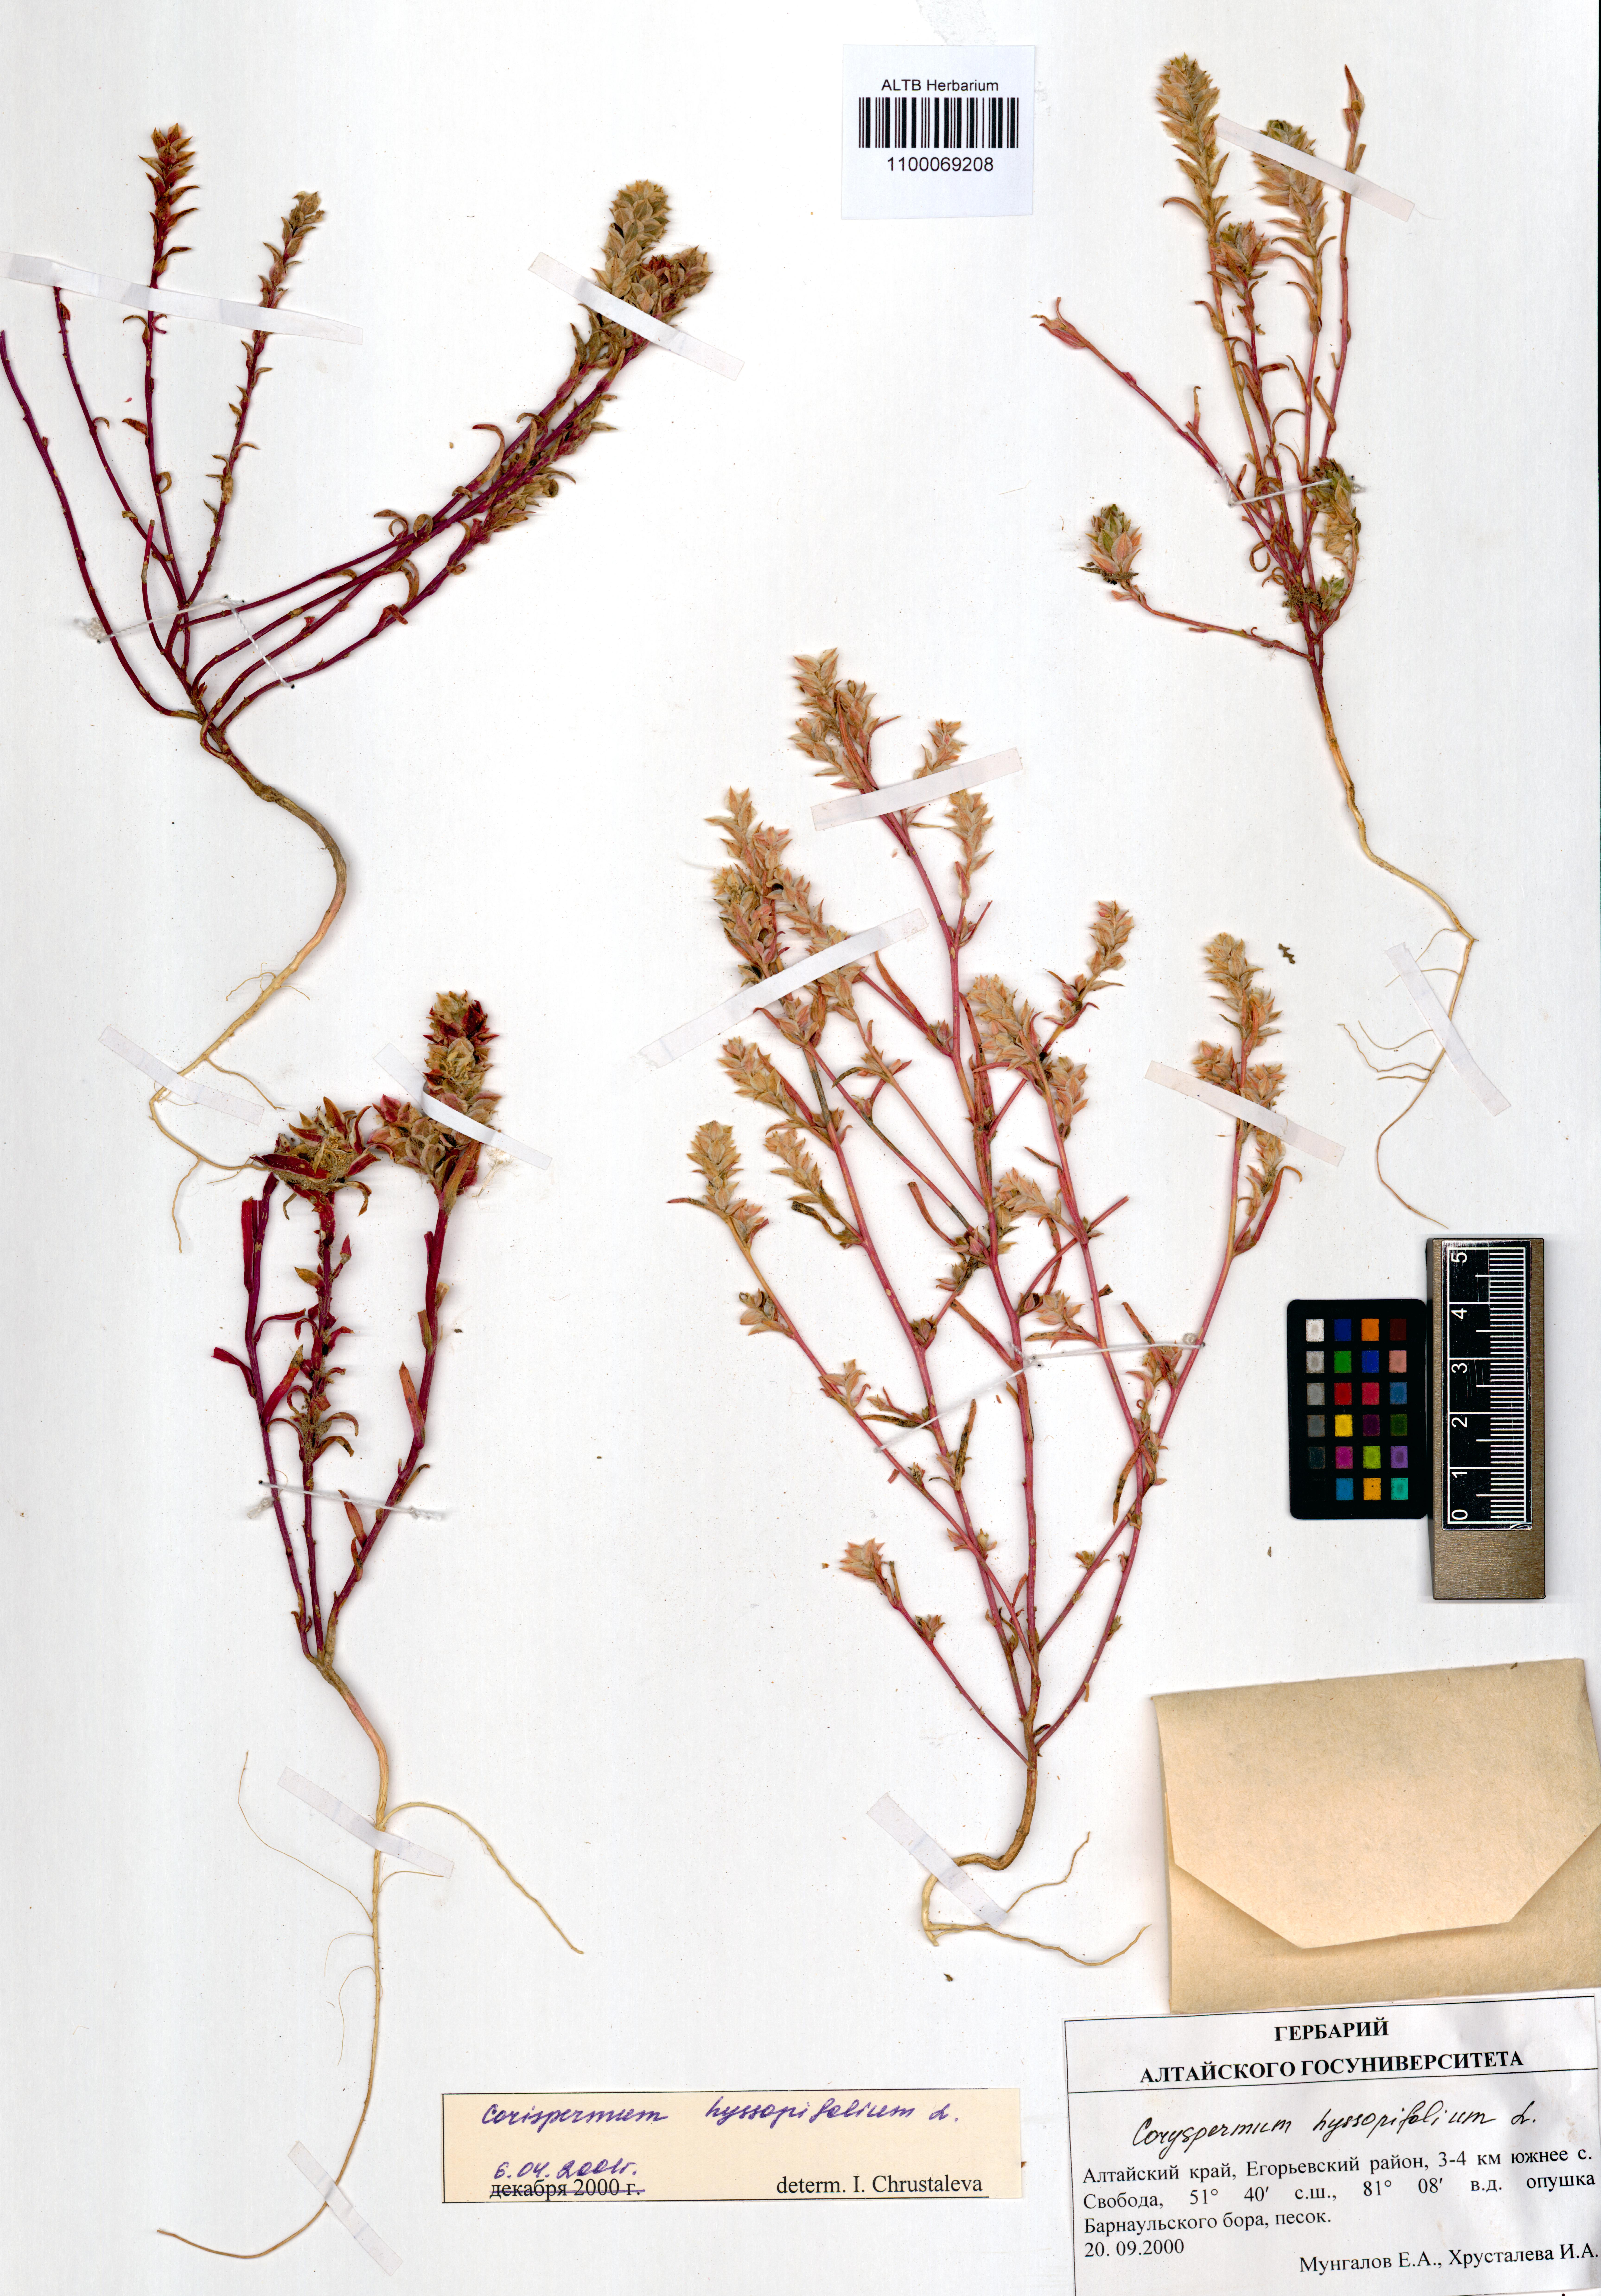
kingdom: Plantae
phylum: Tracheophyta
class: Magnoliopsida
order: Caryophyllales
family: Amaranthaceae
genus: Corispermum
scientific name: Corispermum hyssopifolium
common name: Bugseed
